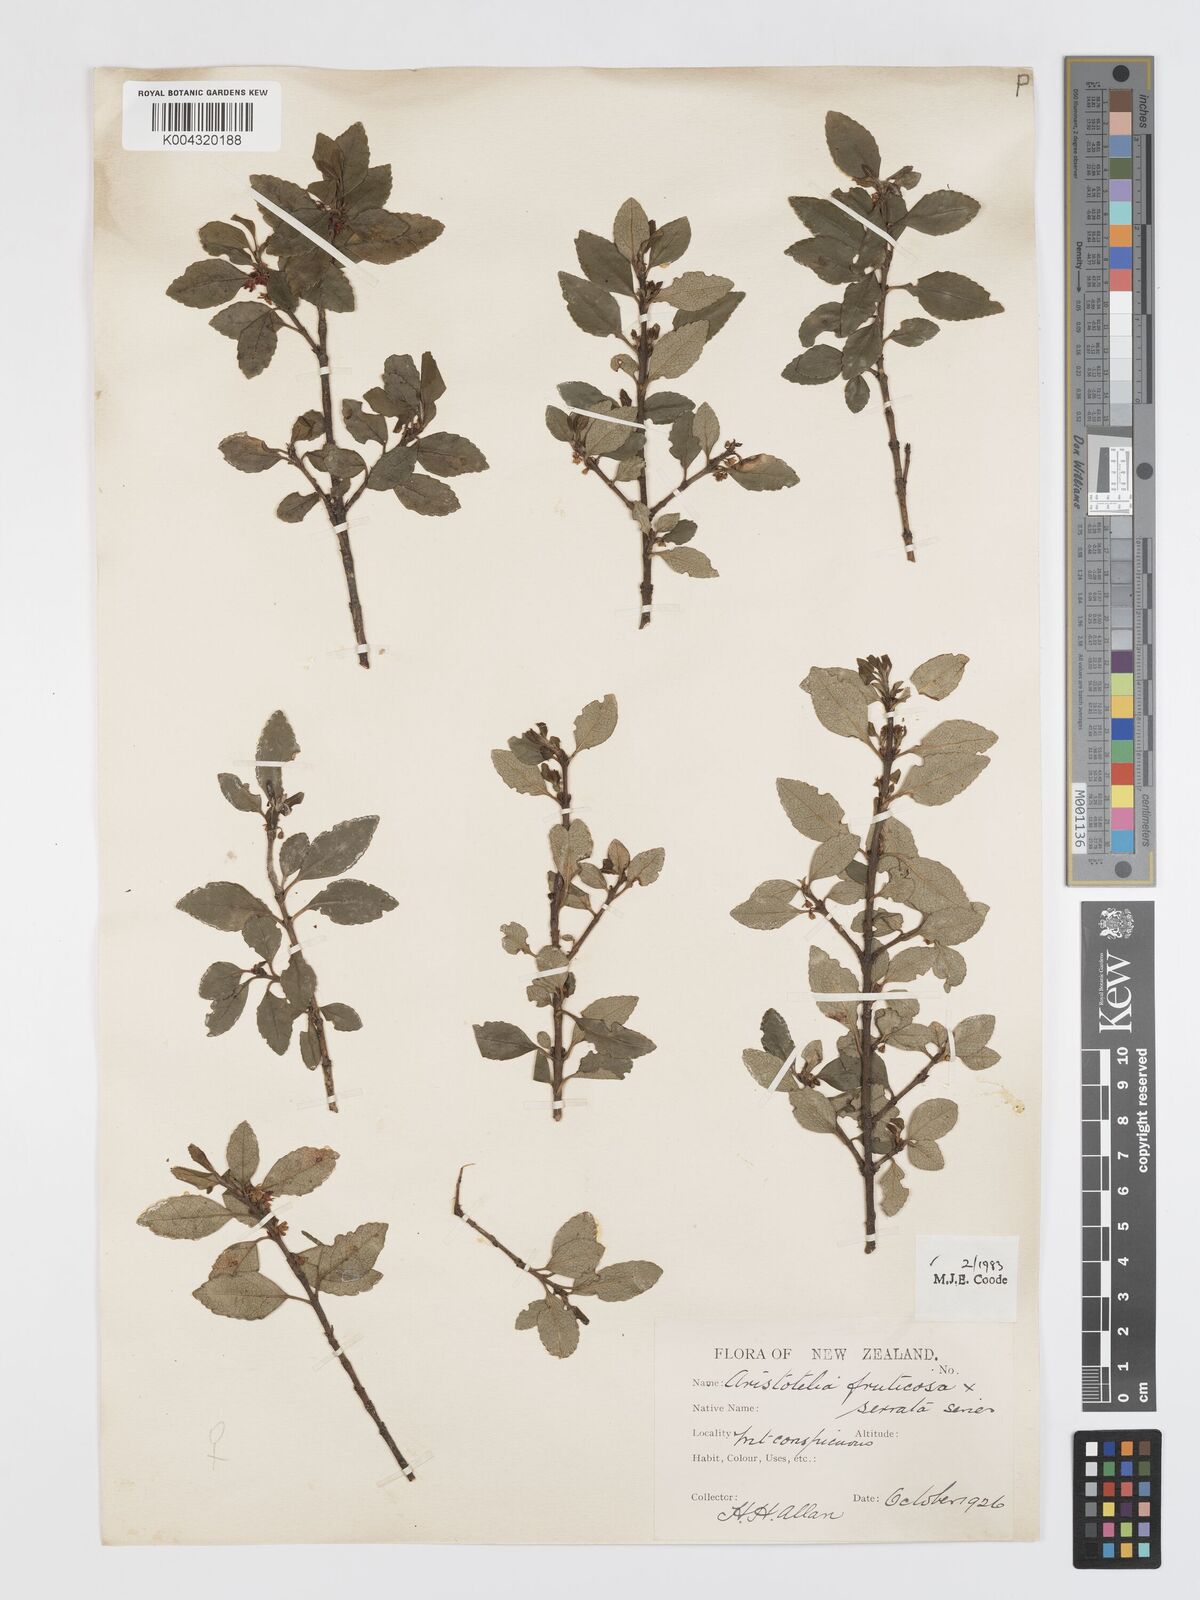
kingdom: Plantae
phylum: Tracheophyta
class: Magnoliopsida
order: Oxalidales
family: Elaeocarpaceae
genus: Aristotelia
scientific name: Aristotelia fruticosa
